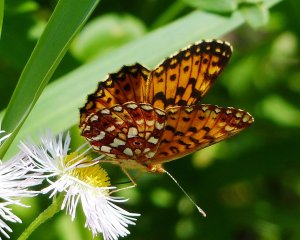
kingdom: Animalia
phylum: Arthropoda
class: Insecta
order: Lepidoptera
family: Nymphalidae
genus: Boloria
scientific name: Boloria selene
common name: Silver-bordered Fritillary
